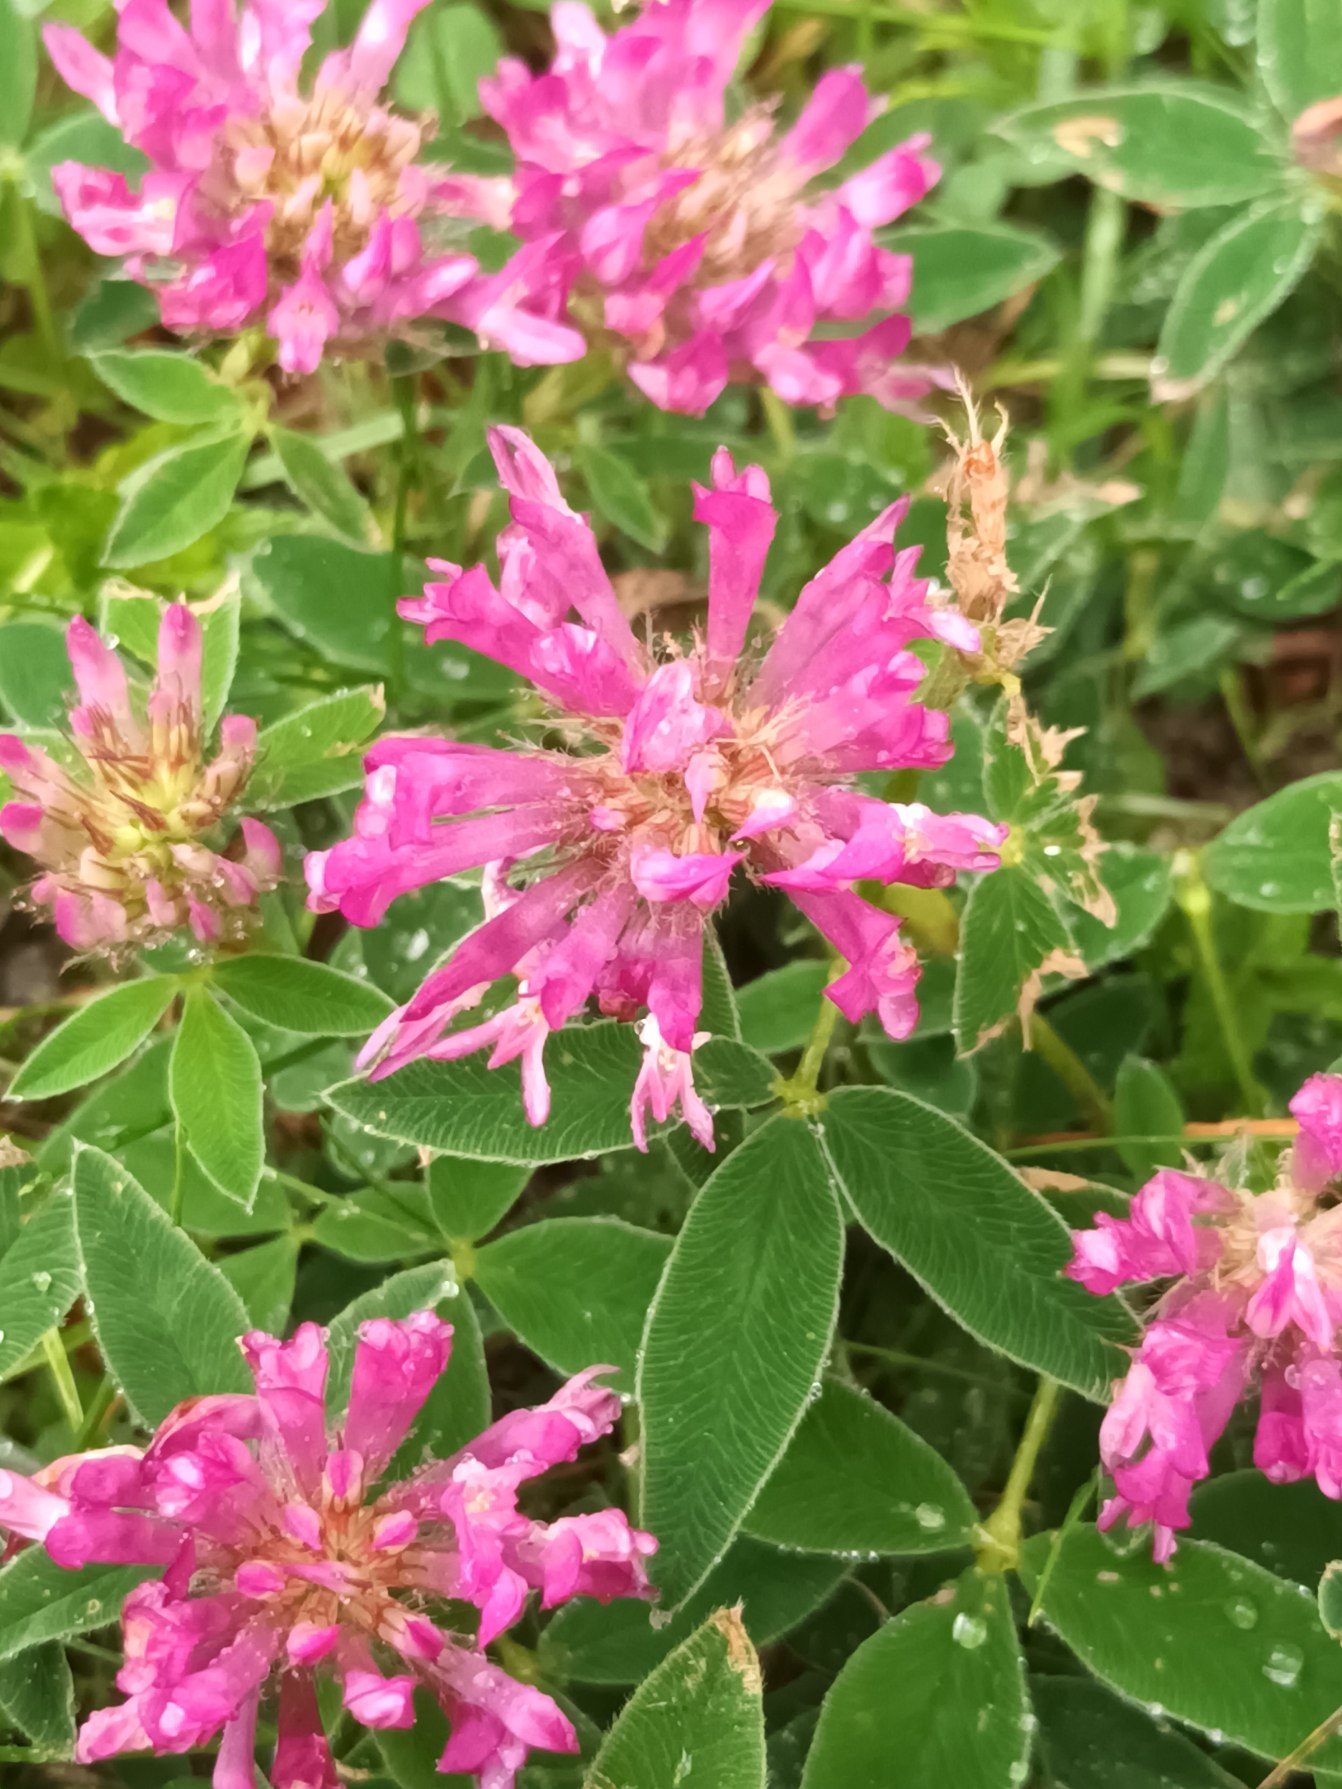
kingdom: Plantae
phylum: Tracheophyta
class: Magnoliopsida
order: Fabales
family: Fabaceae
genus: Trifolium
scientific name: Trifolium medium
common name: Bugtet kløver
